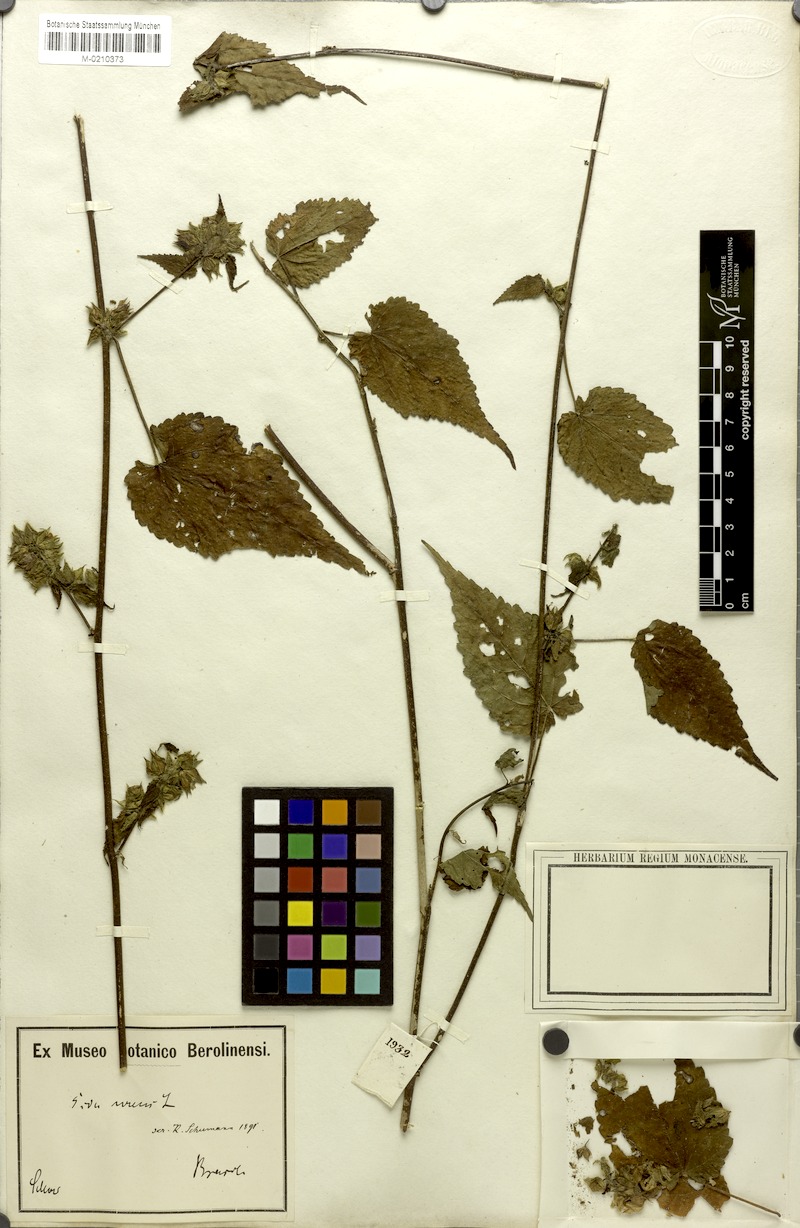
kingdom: Plantae
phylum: Tracheophyta
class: Magnoliopsida
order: Malvales
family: Malvaceae
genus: Sida
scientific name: Sida urens
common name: Tropical fanpetals
